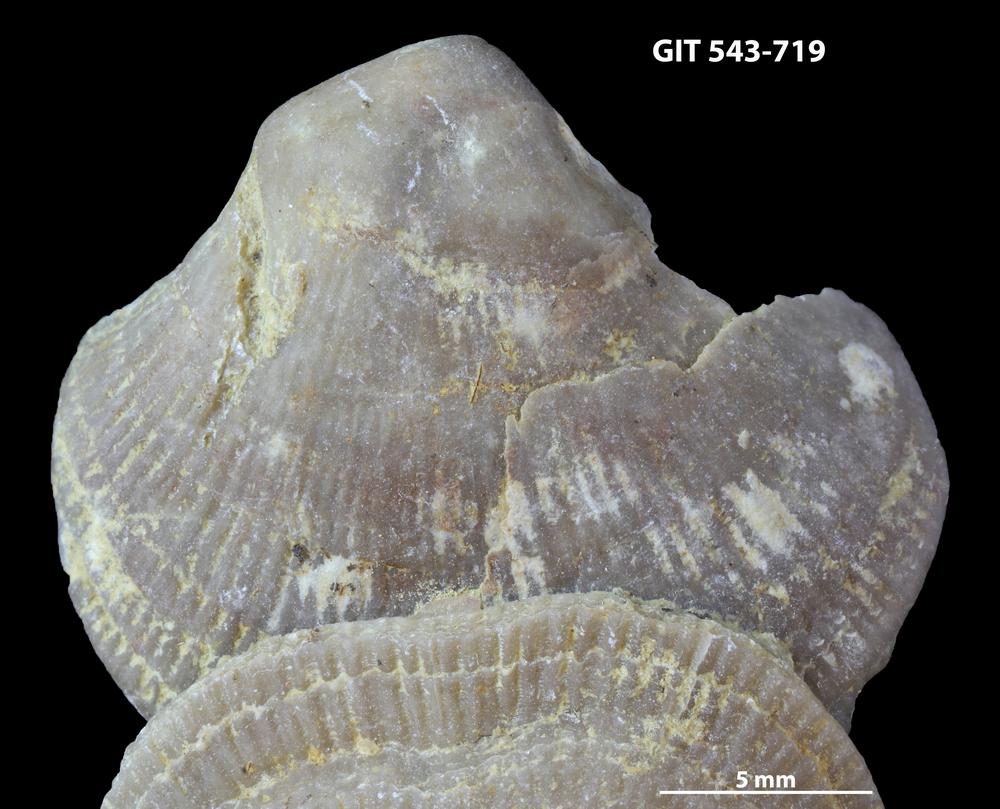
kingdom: Animalia
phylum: Brachiopoda
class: Rhynchonellata
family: Clitambonitidae
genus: Vellamo
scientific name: Vellamo oandoensis
